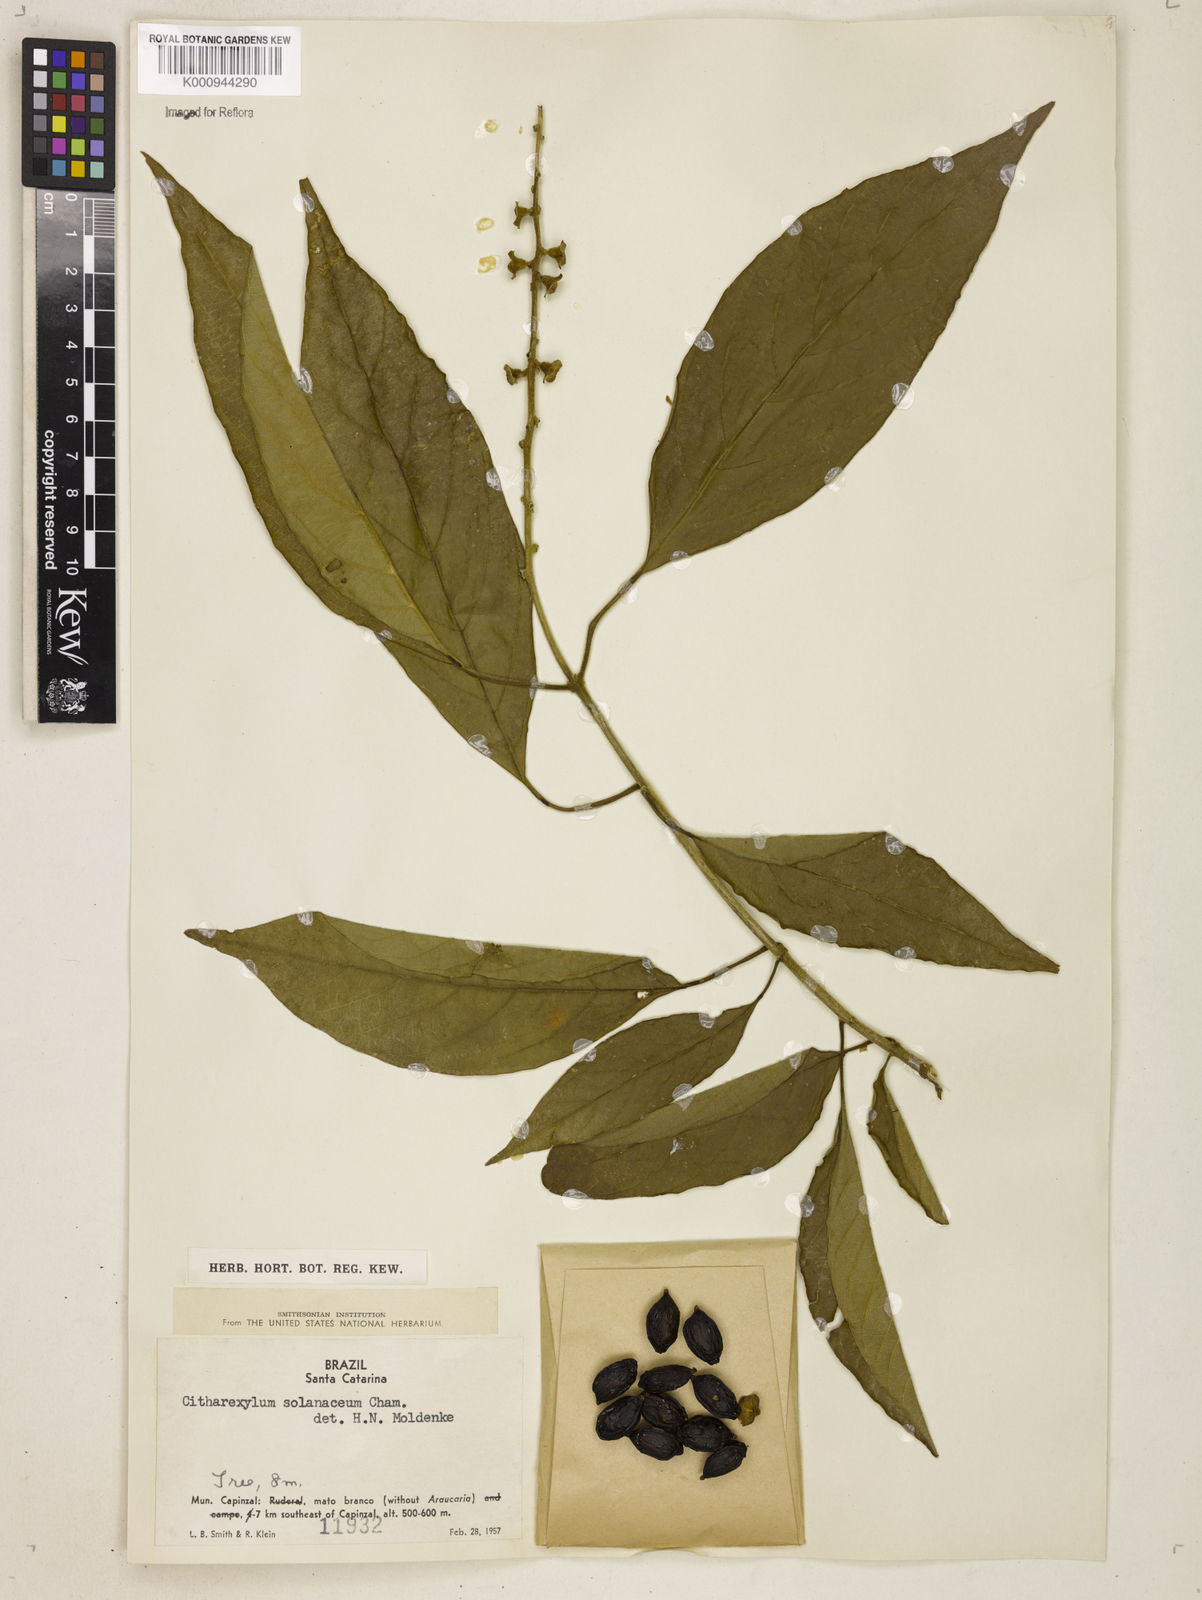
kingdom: Plantae
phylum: Tracheophyta
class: Magnoliopsida
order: Lamiales
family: Verbenaceae
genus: Citharexylum
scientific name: Citharexylum solanaceum
